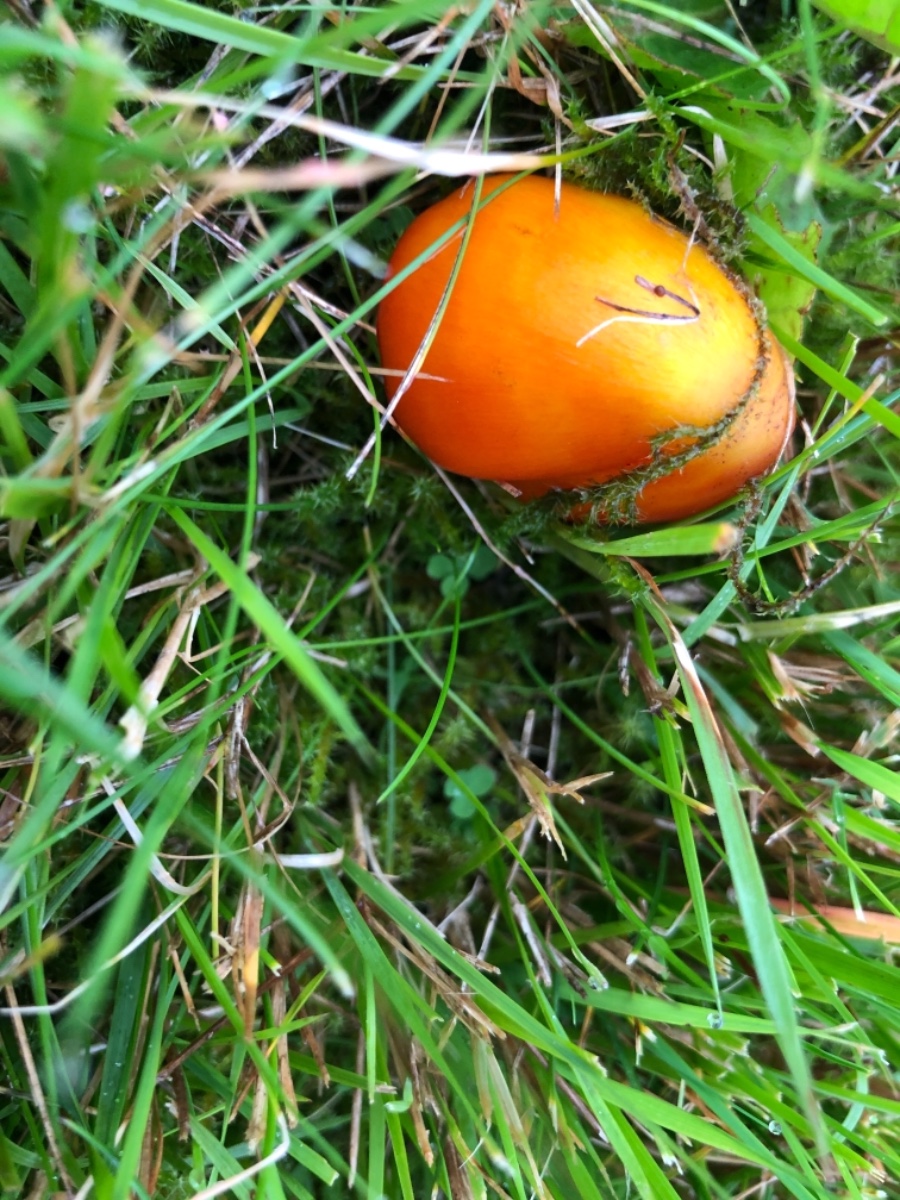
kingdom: Fungi
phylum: Basidiomycota
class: Agaricomycetes
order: Agaricales
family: Hygrophoraceae
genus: Hygrocybe
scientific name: Hygrocybe conica
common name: kegle-vokshat
